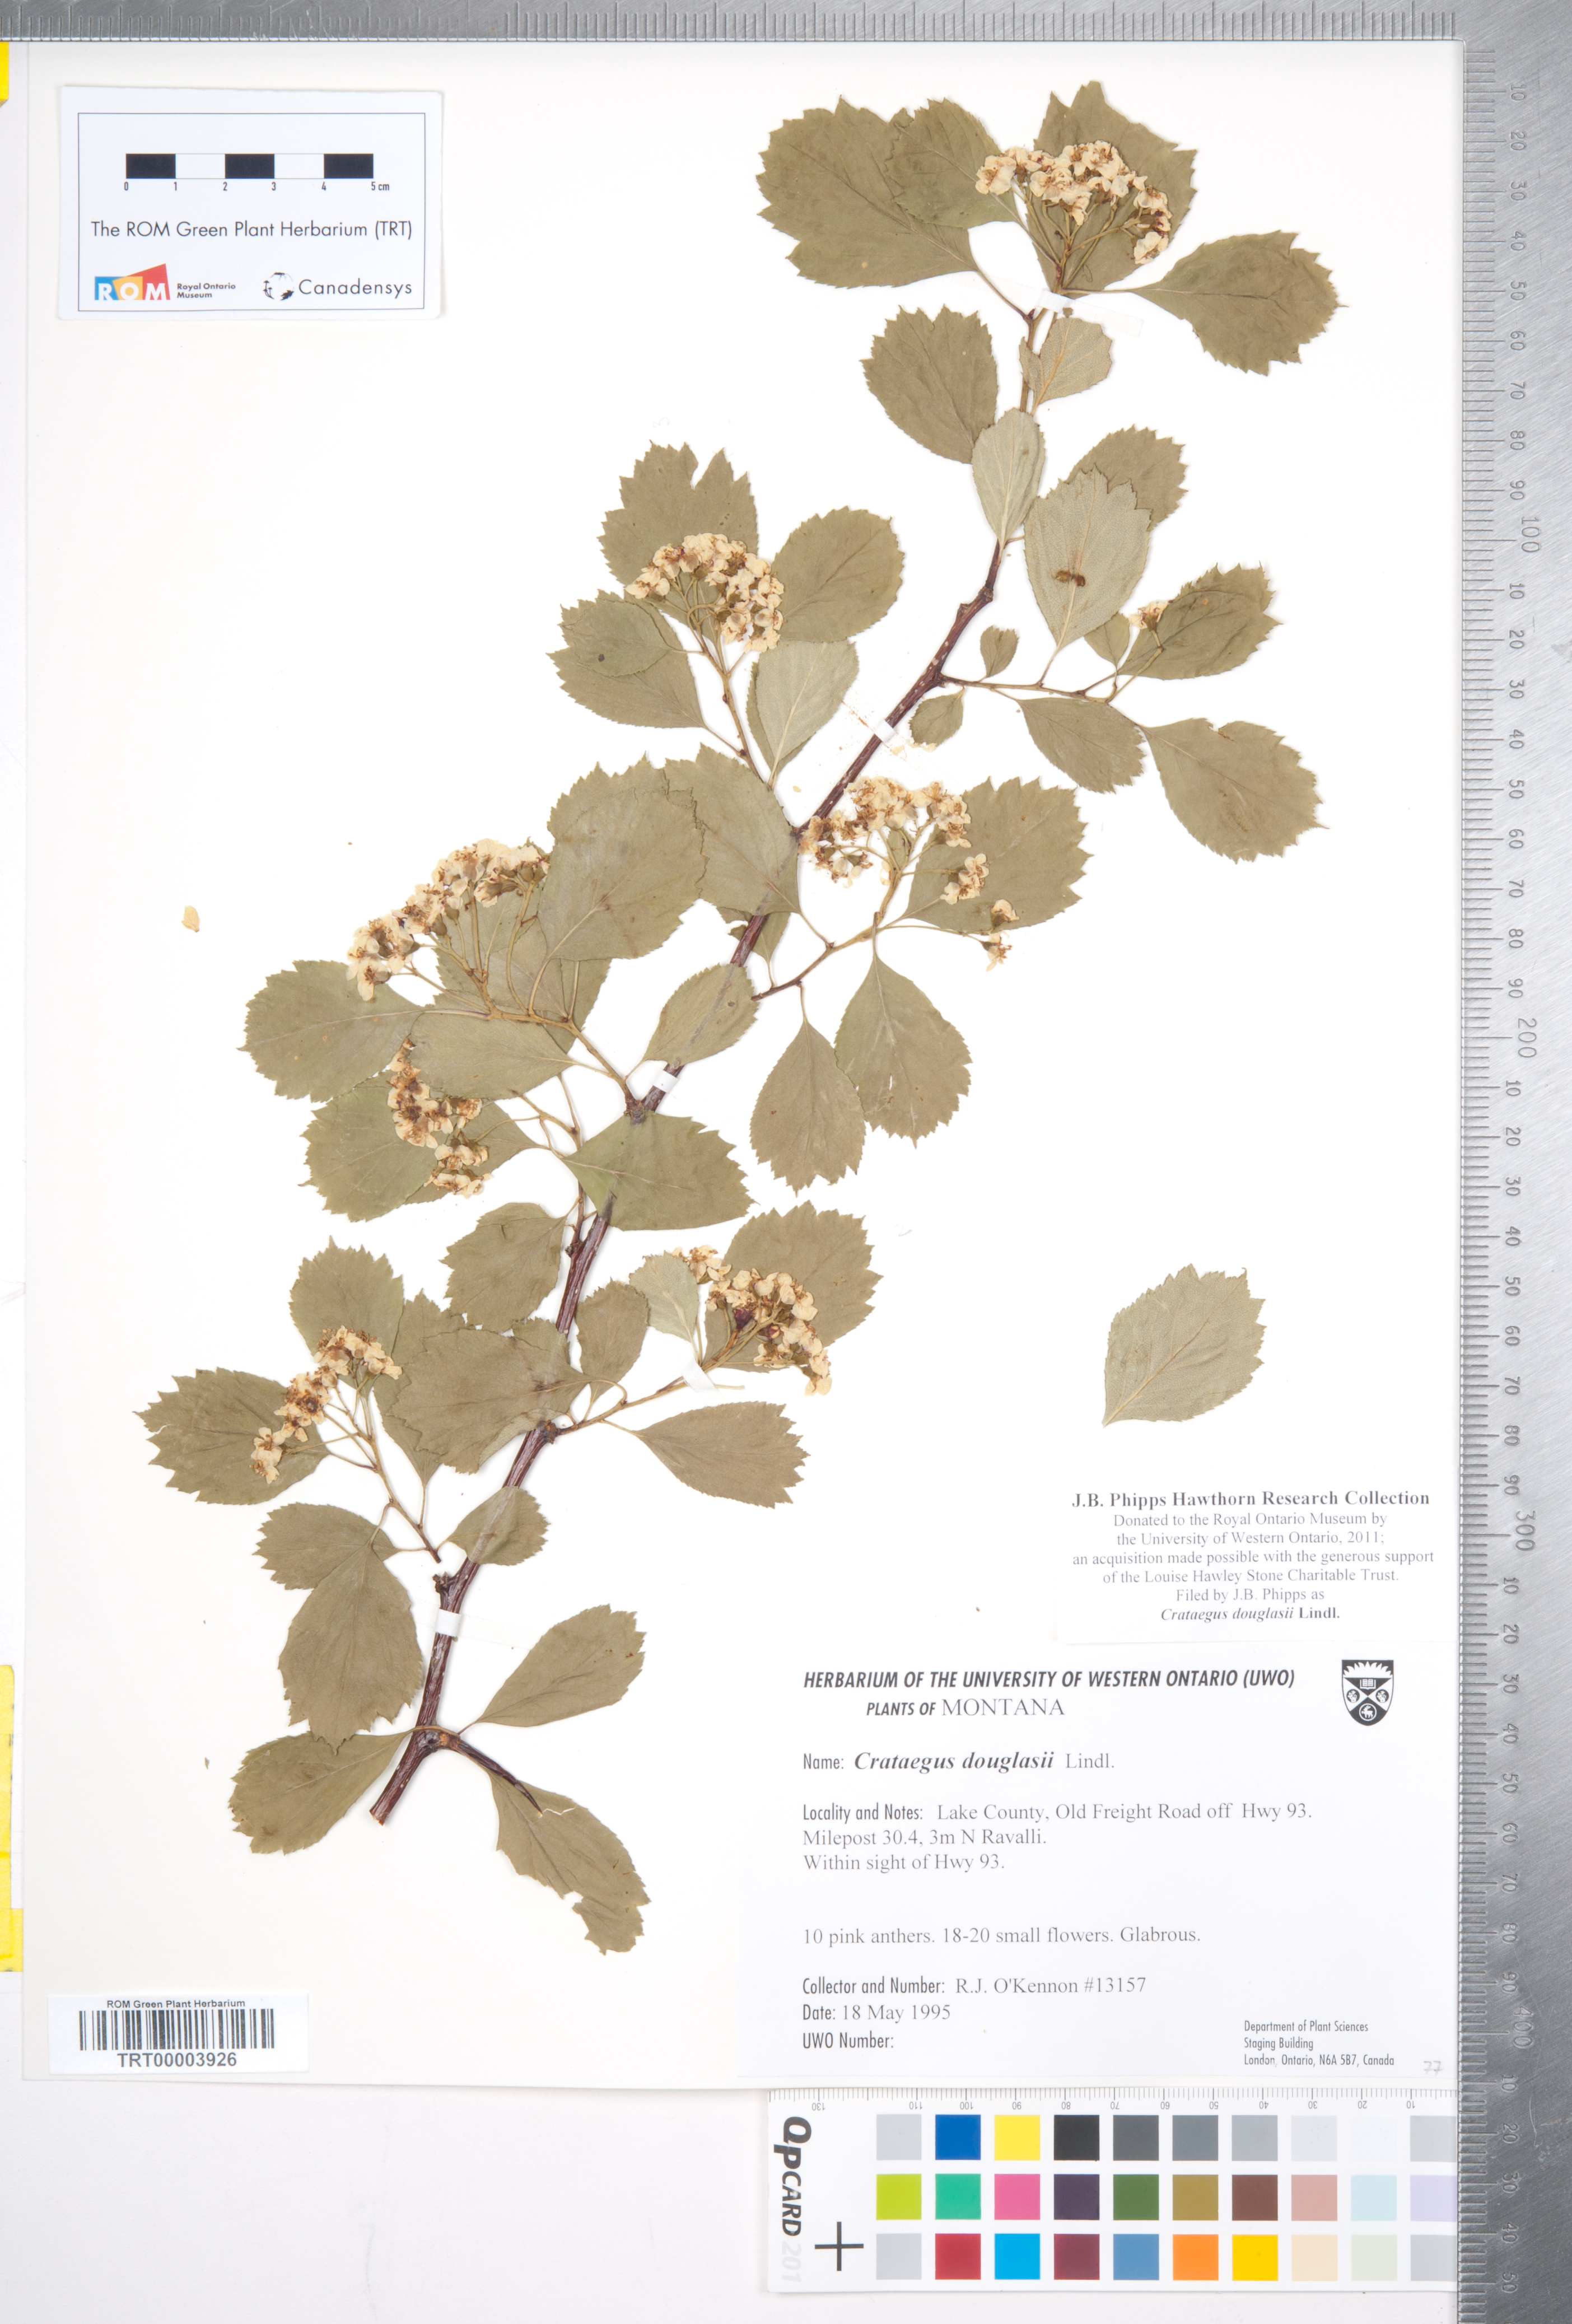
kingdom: Plantae
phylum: Tracheophyta
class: Magnoliopsida
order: Rosales
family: Rosaceae
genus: Crataegus
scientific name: Crataegus douglasii
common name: Black hawthorn
